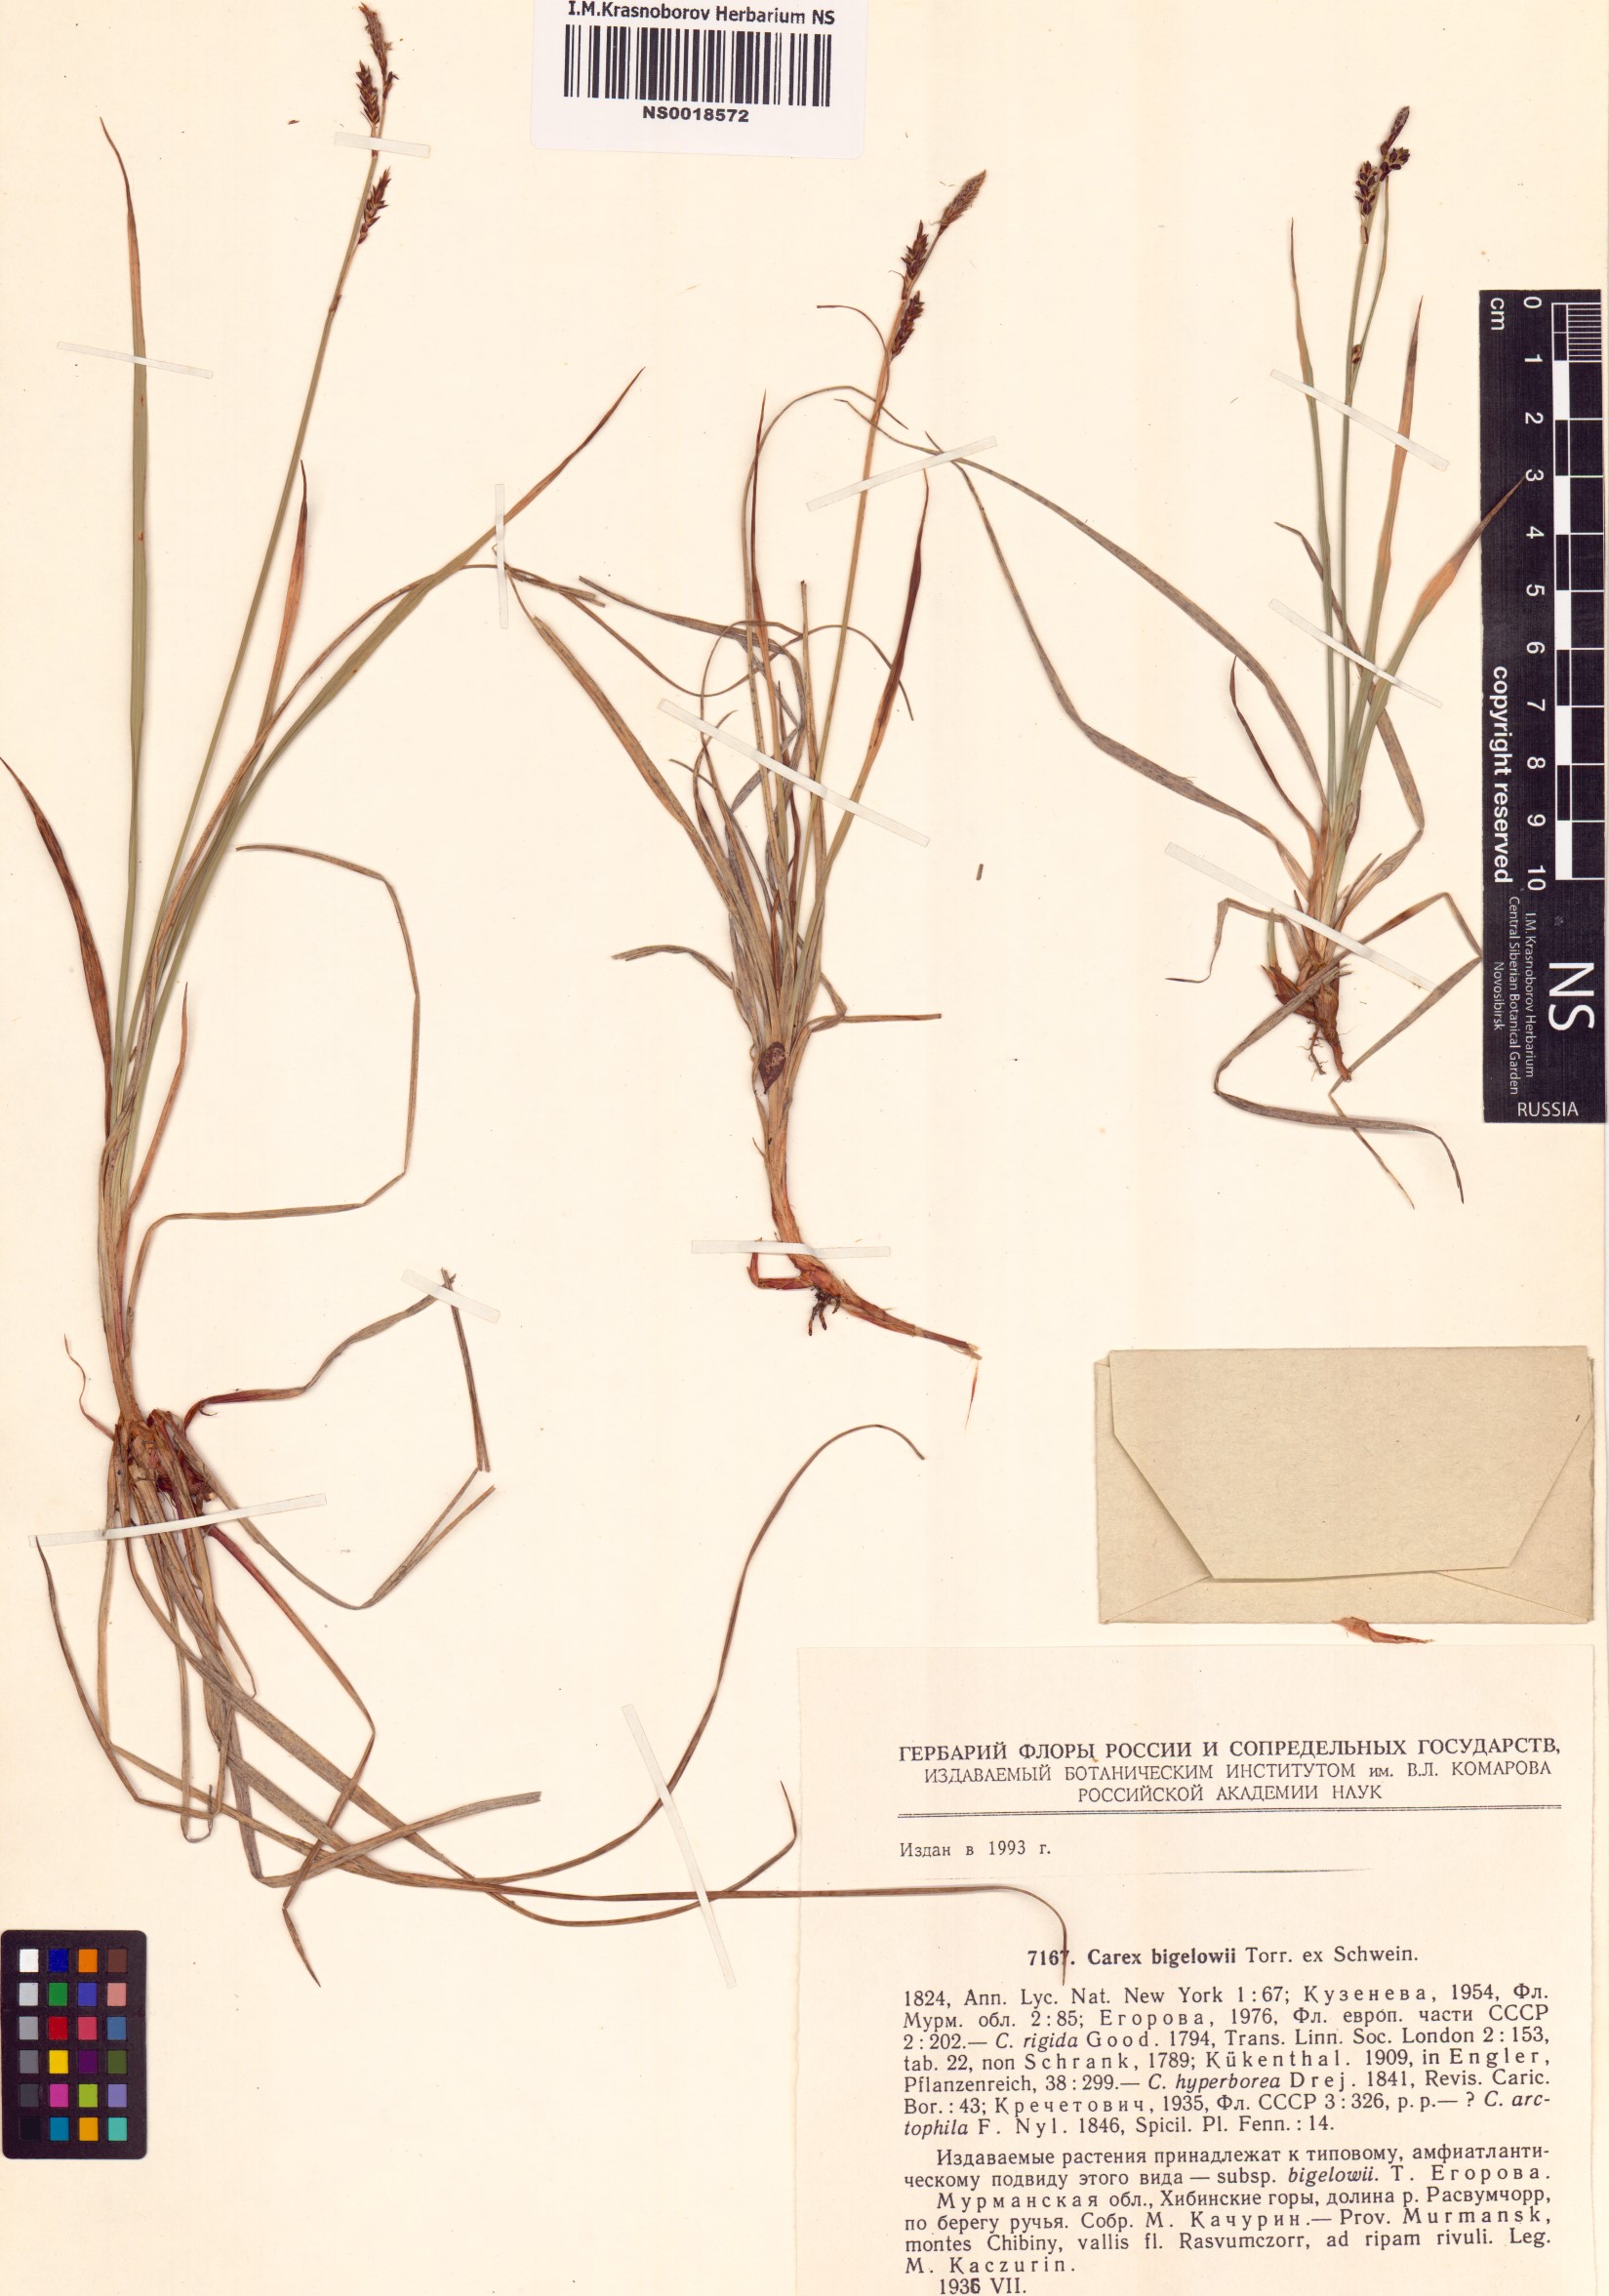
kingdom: Plantae
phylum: Tracheophyta
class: Liliopsida
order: Poales
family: Cyperaceae
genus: Carex
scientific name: Carex bigelowii
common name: Stiff sedge
